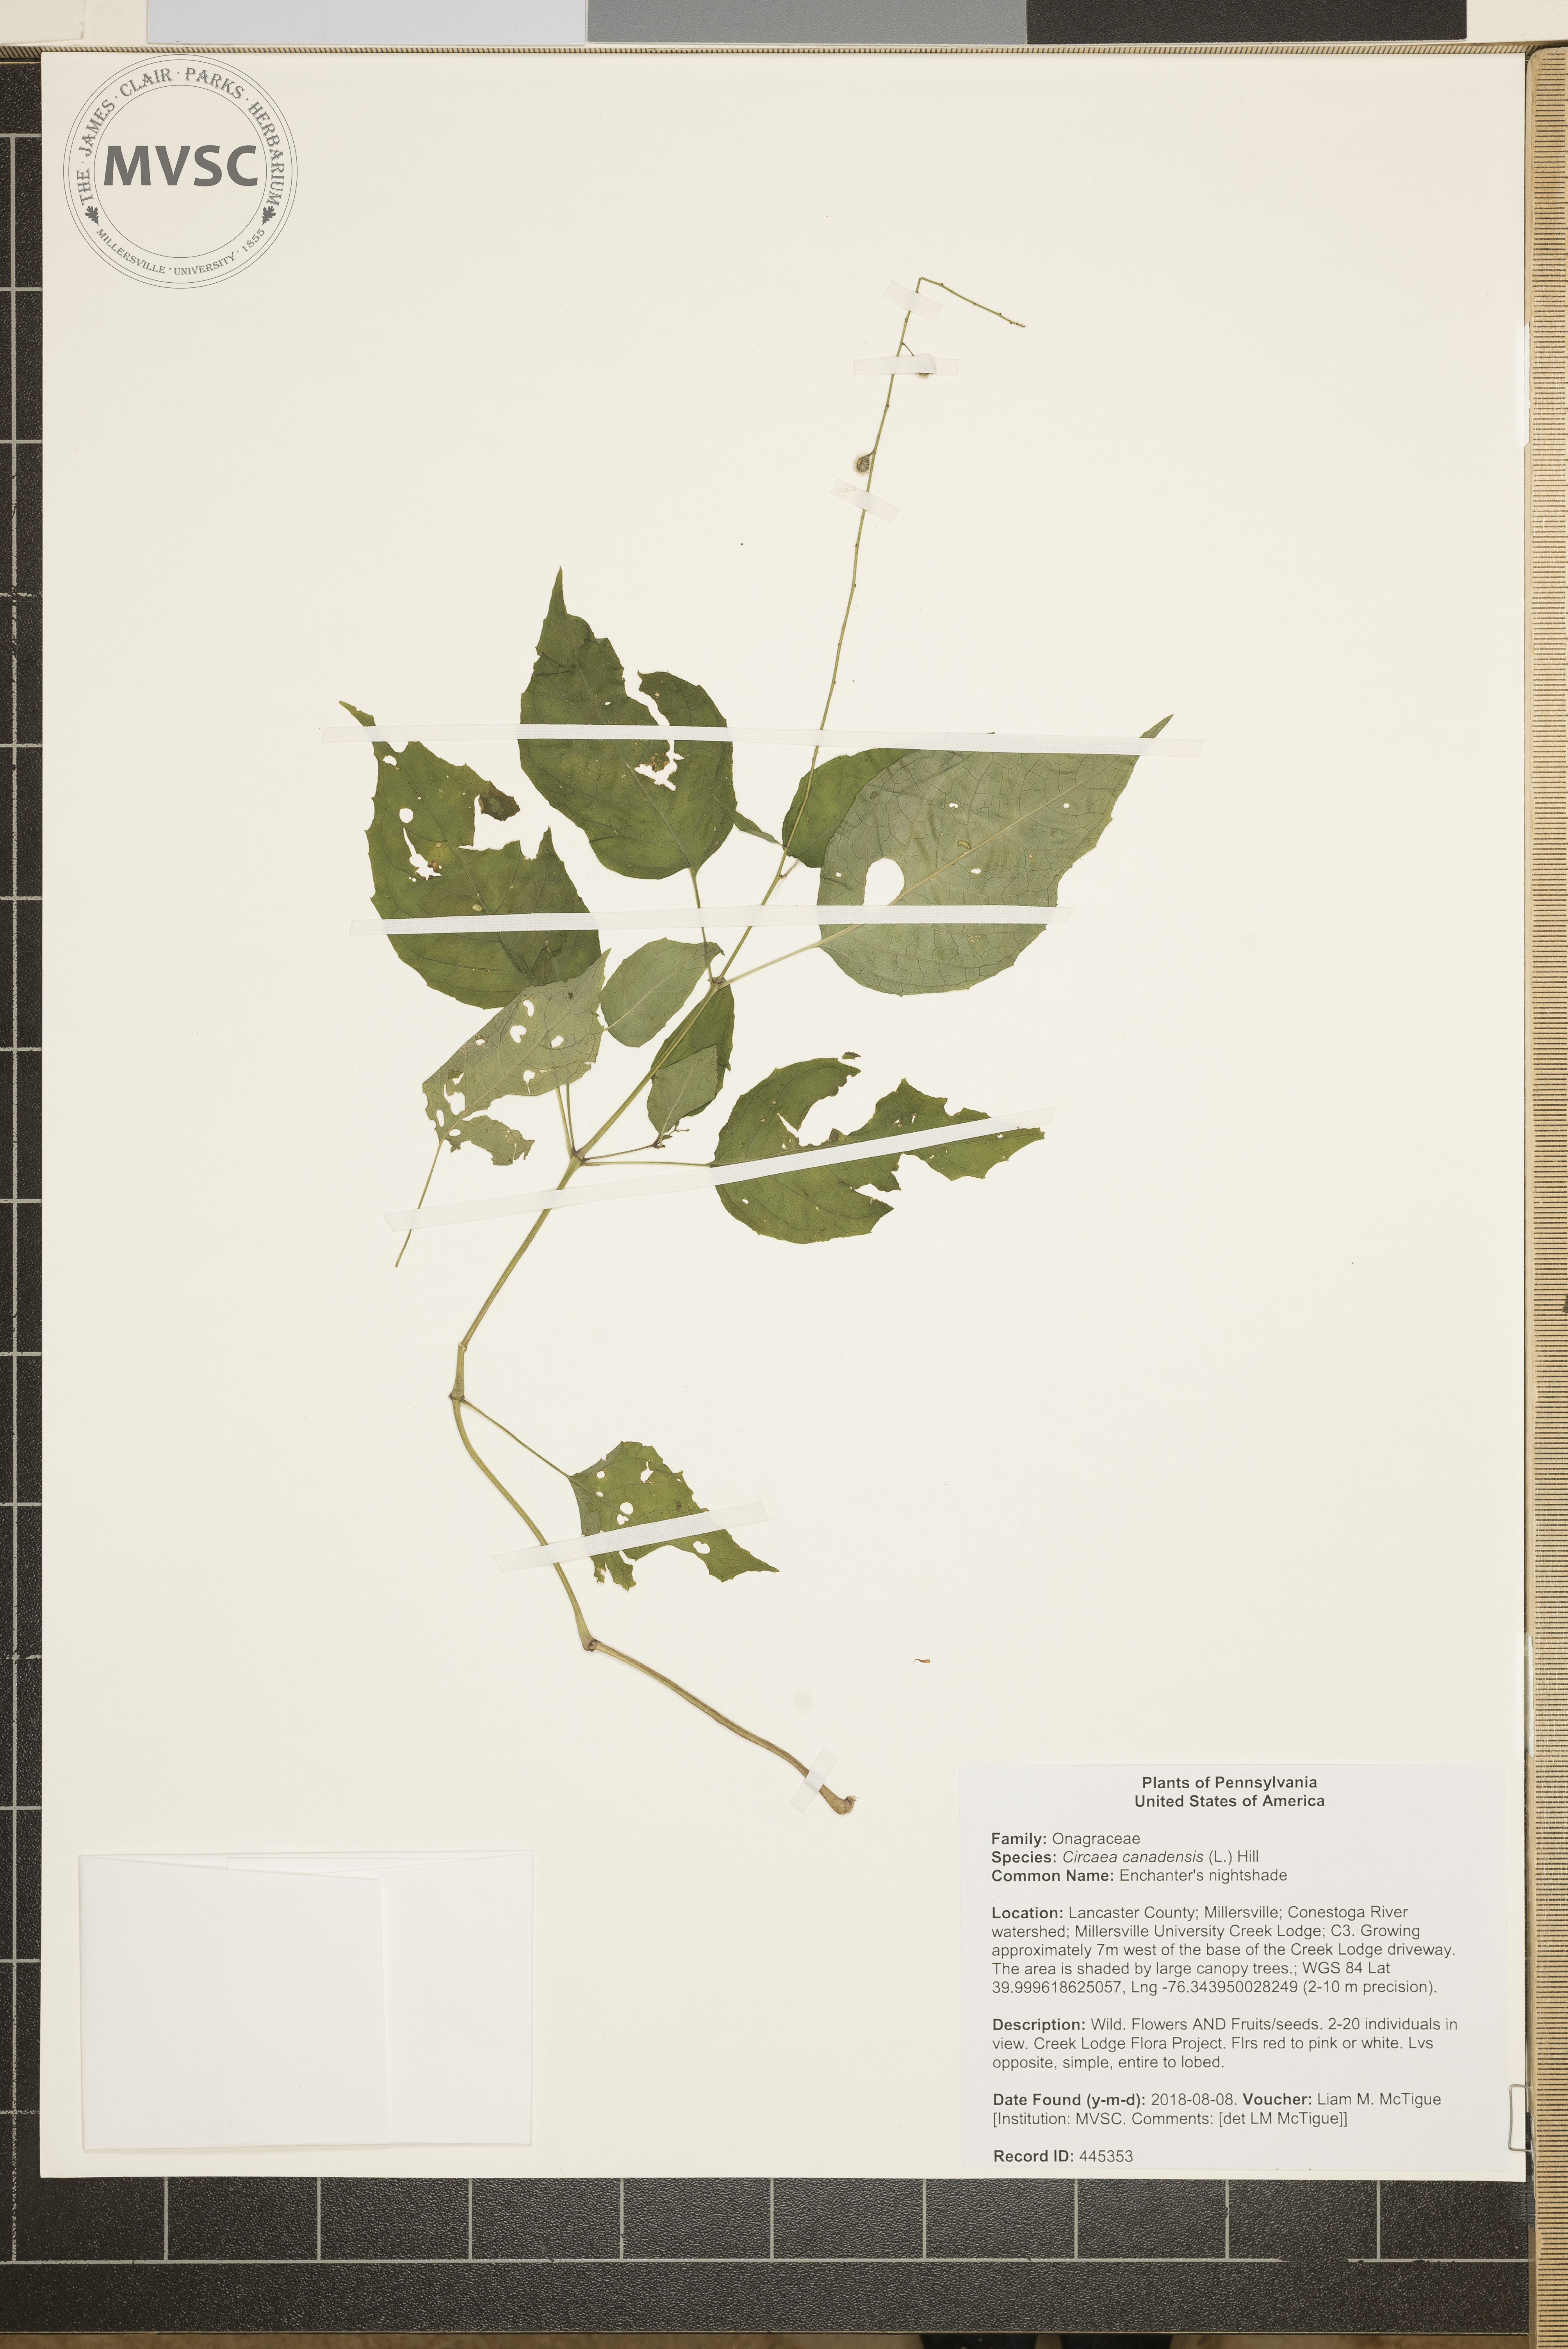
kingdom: Plantae
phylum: Tracheophyta
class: Magnoliopsida
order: Myrtales
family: Onagraceae
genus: Circaea
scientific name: Circaea canadensis
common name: Enchanter's nightshade
